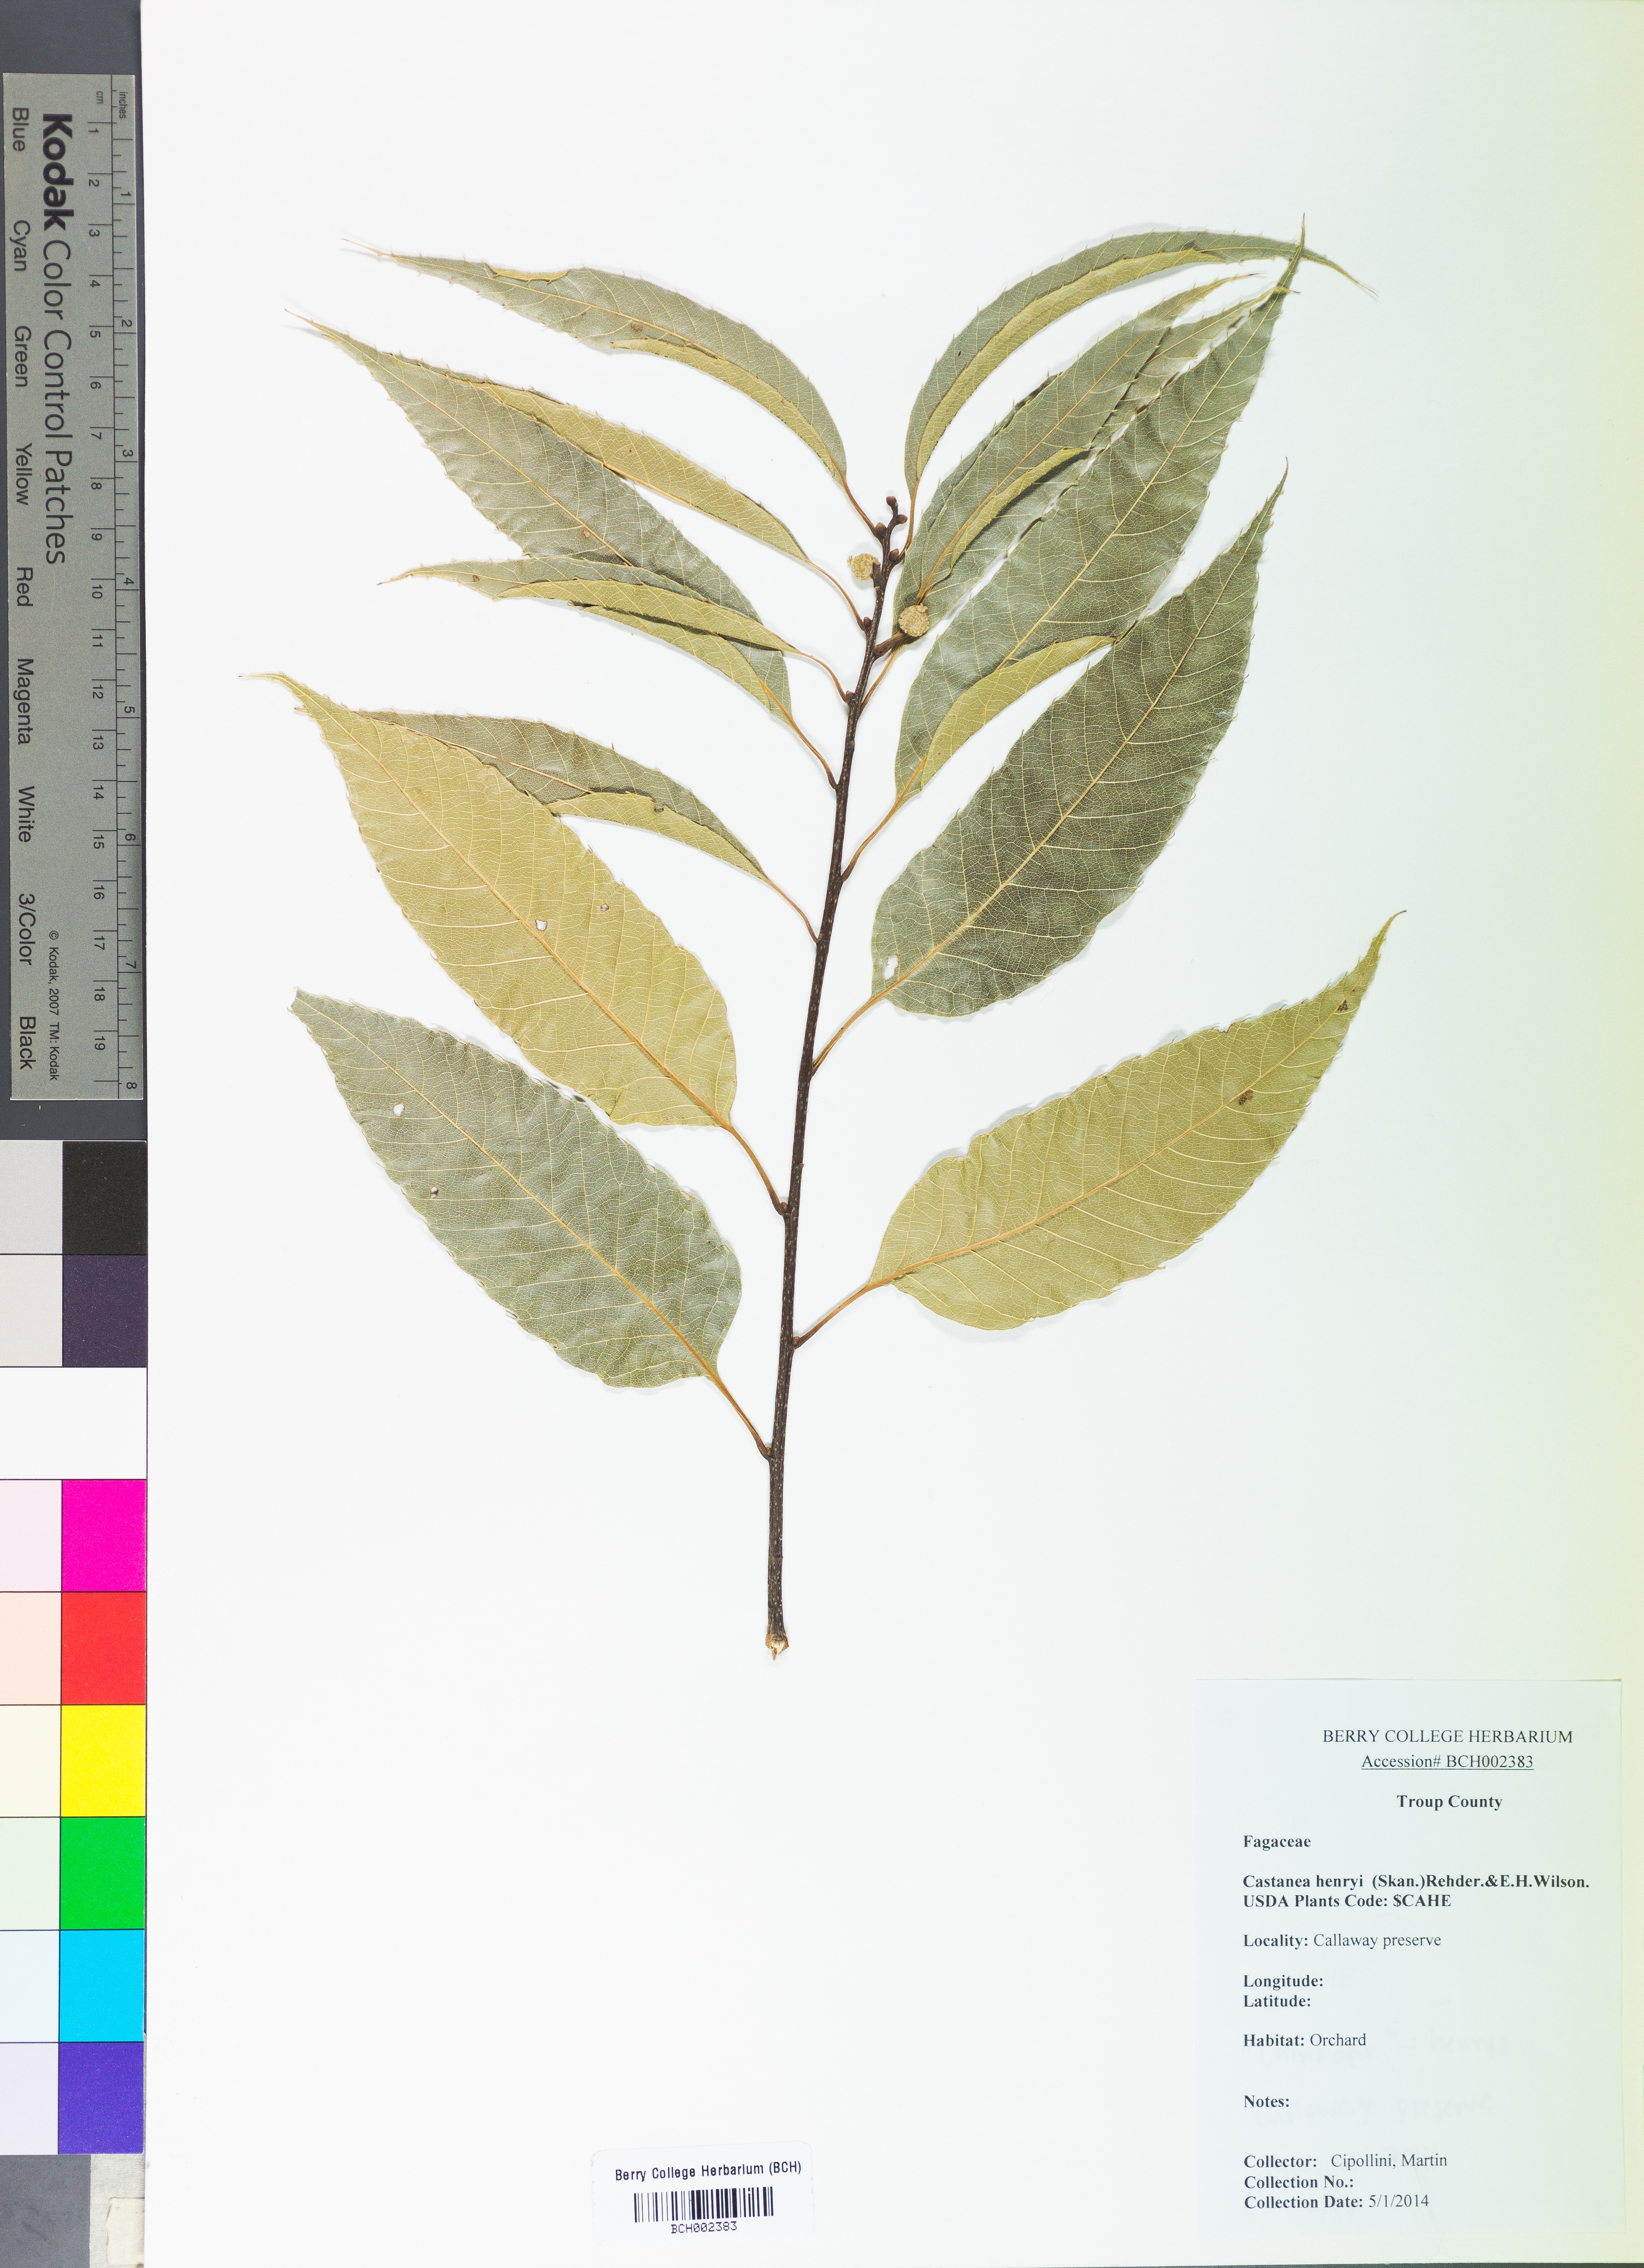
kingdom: Plantae
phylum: Tracheophyta
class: Magnoliopsida
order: Fagales
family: Fagaceae
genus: Castanea
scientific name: Castanea henryi
